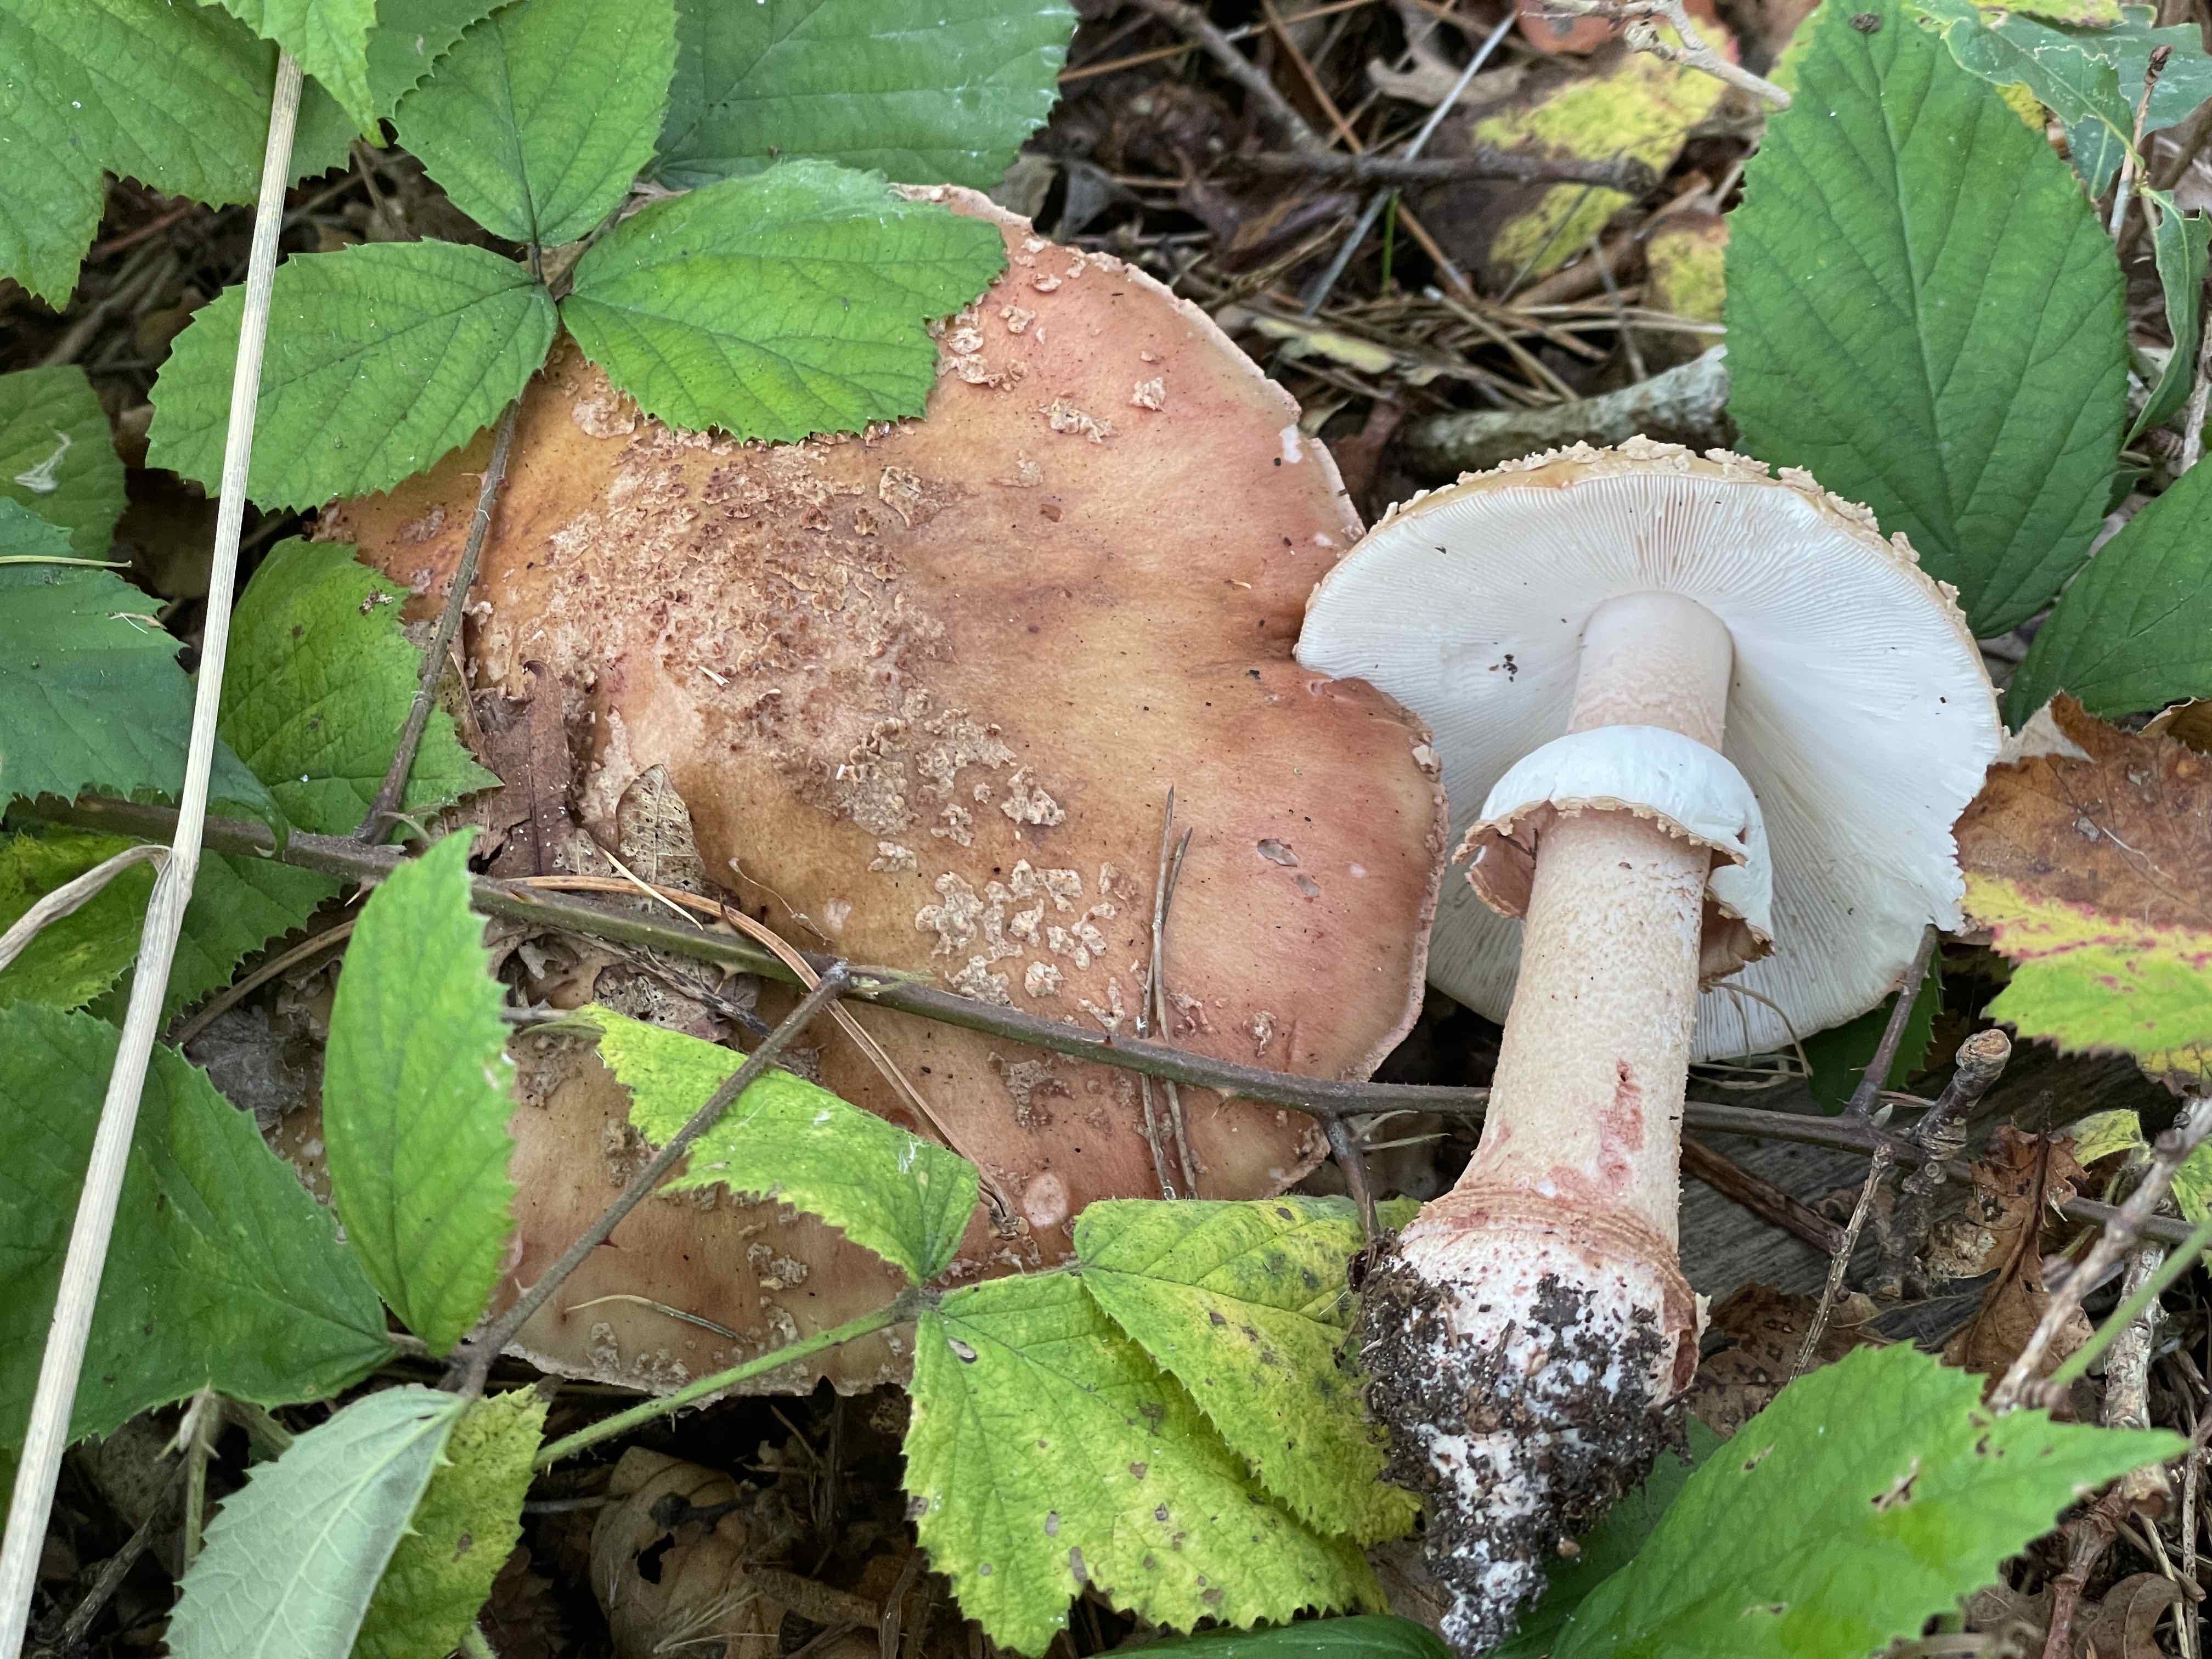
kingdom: Fungi
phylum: Basidiomycota
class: Agaricomycetes
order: Agaricales
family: Amanitaceae
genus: Amanita
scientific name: Amanita rubescens
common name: rødmende fluesvamp
